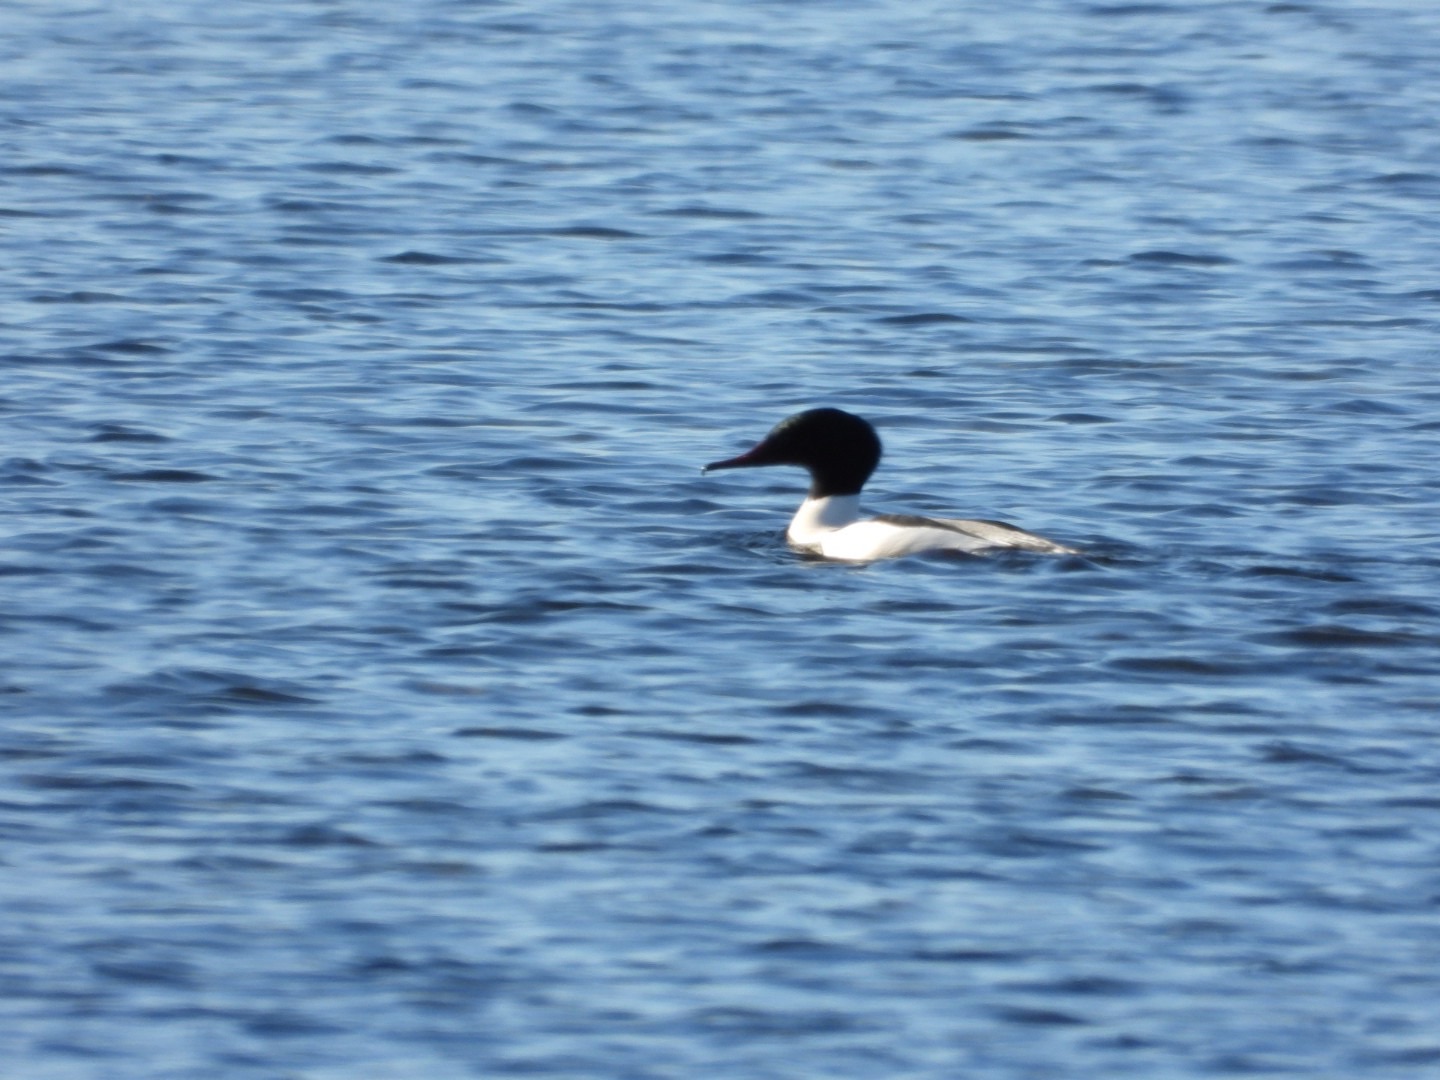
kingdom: Animalia
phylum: Chordata
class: Aves
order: Anseriformes
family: Anatidae
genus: Mergus
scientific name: Mergus merganser
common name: Stor skallesluger
